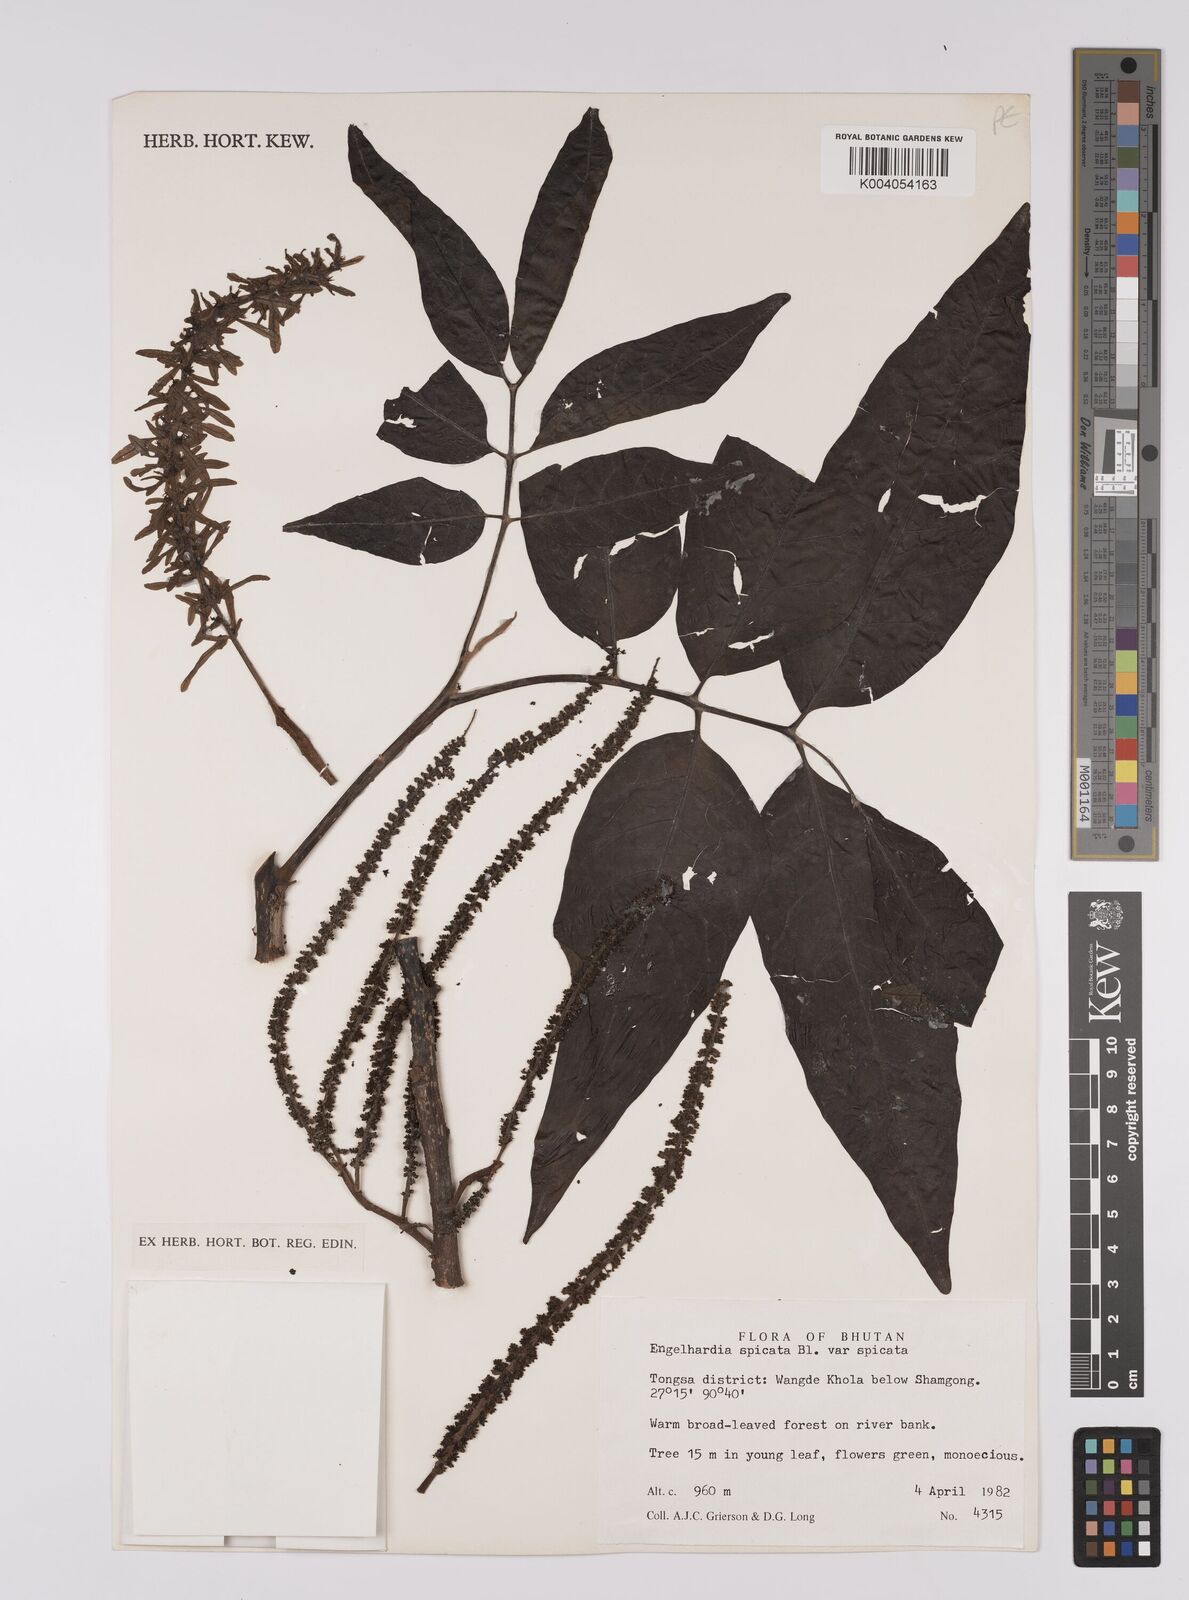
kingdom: Plantae
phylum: Tracheophyta
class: Magnoliopsida
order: Fagales
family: Juglandaceae
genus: Engelhardia
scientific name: Engelhardia spicata
